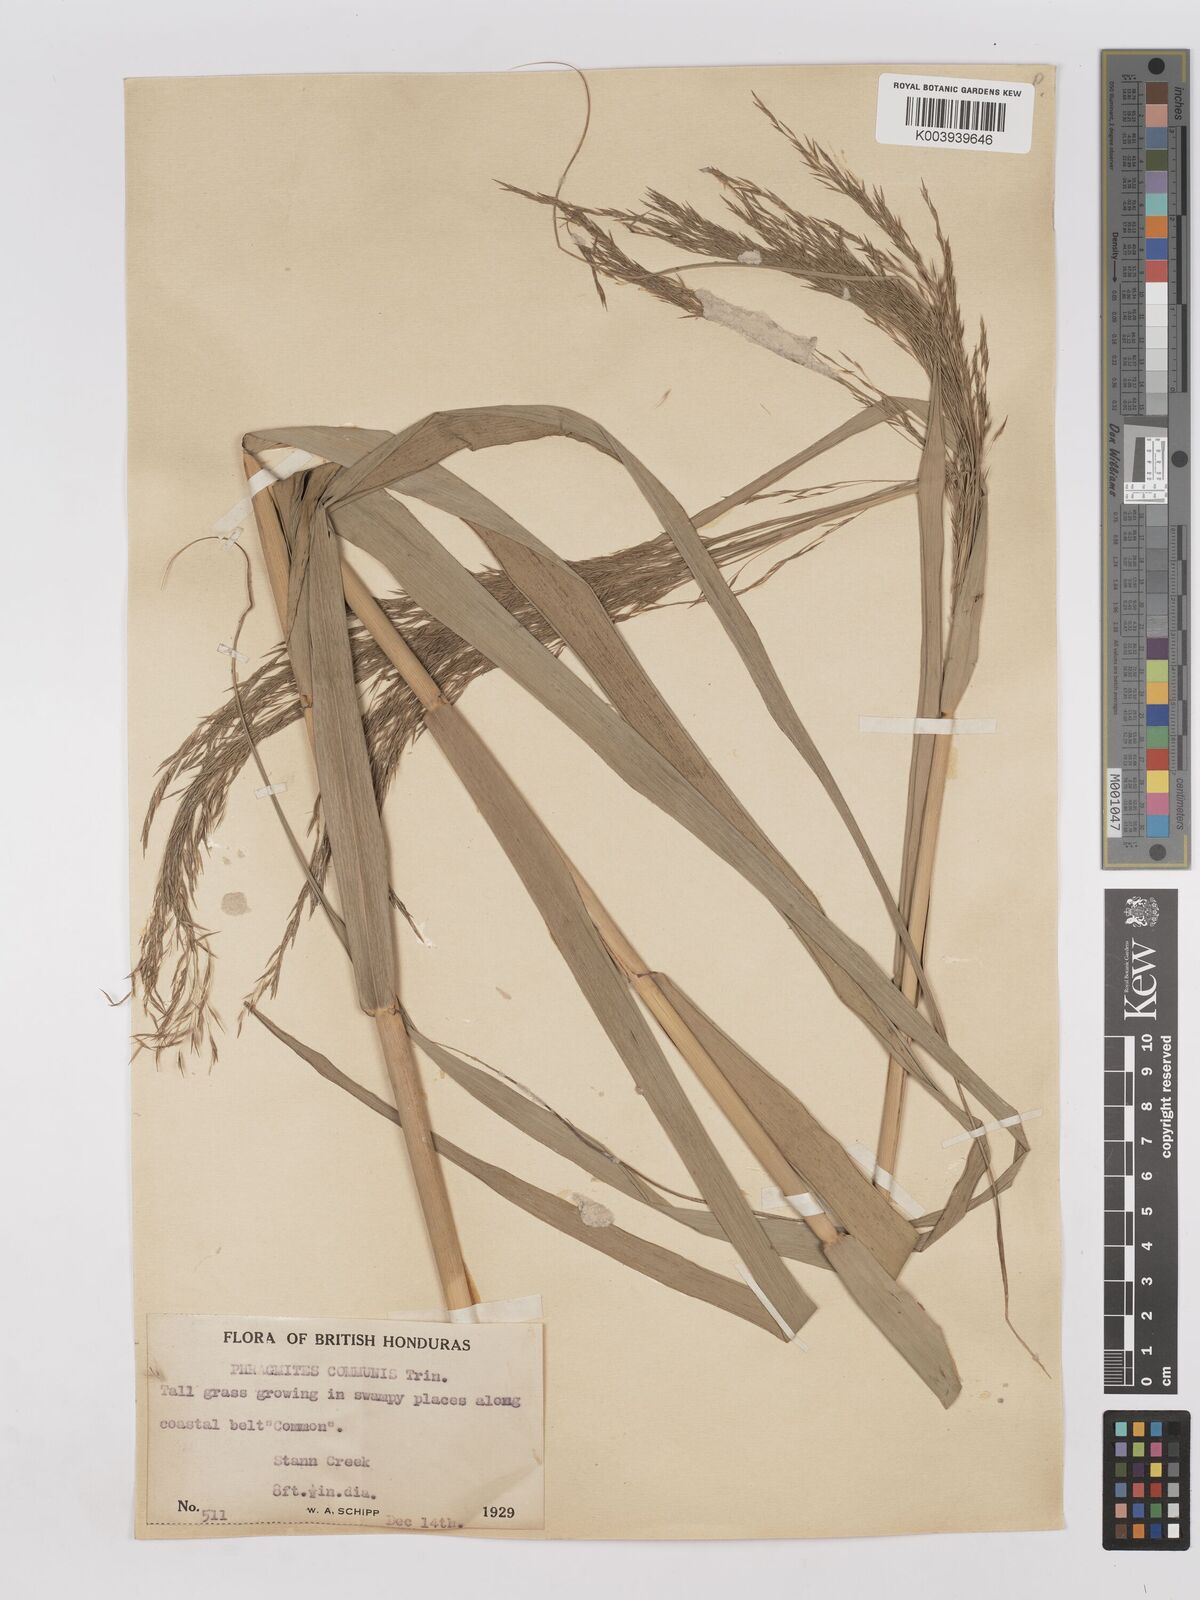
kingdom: Plantae
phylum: Tracheophyta
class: Liliopsida
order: Poales
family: Poaceae
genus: Phragmites
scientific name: Phragmites australis
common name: Common reed
